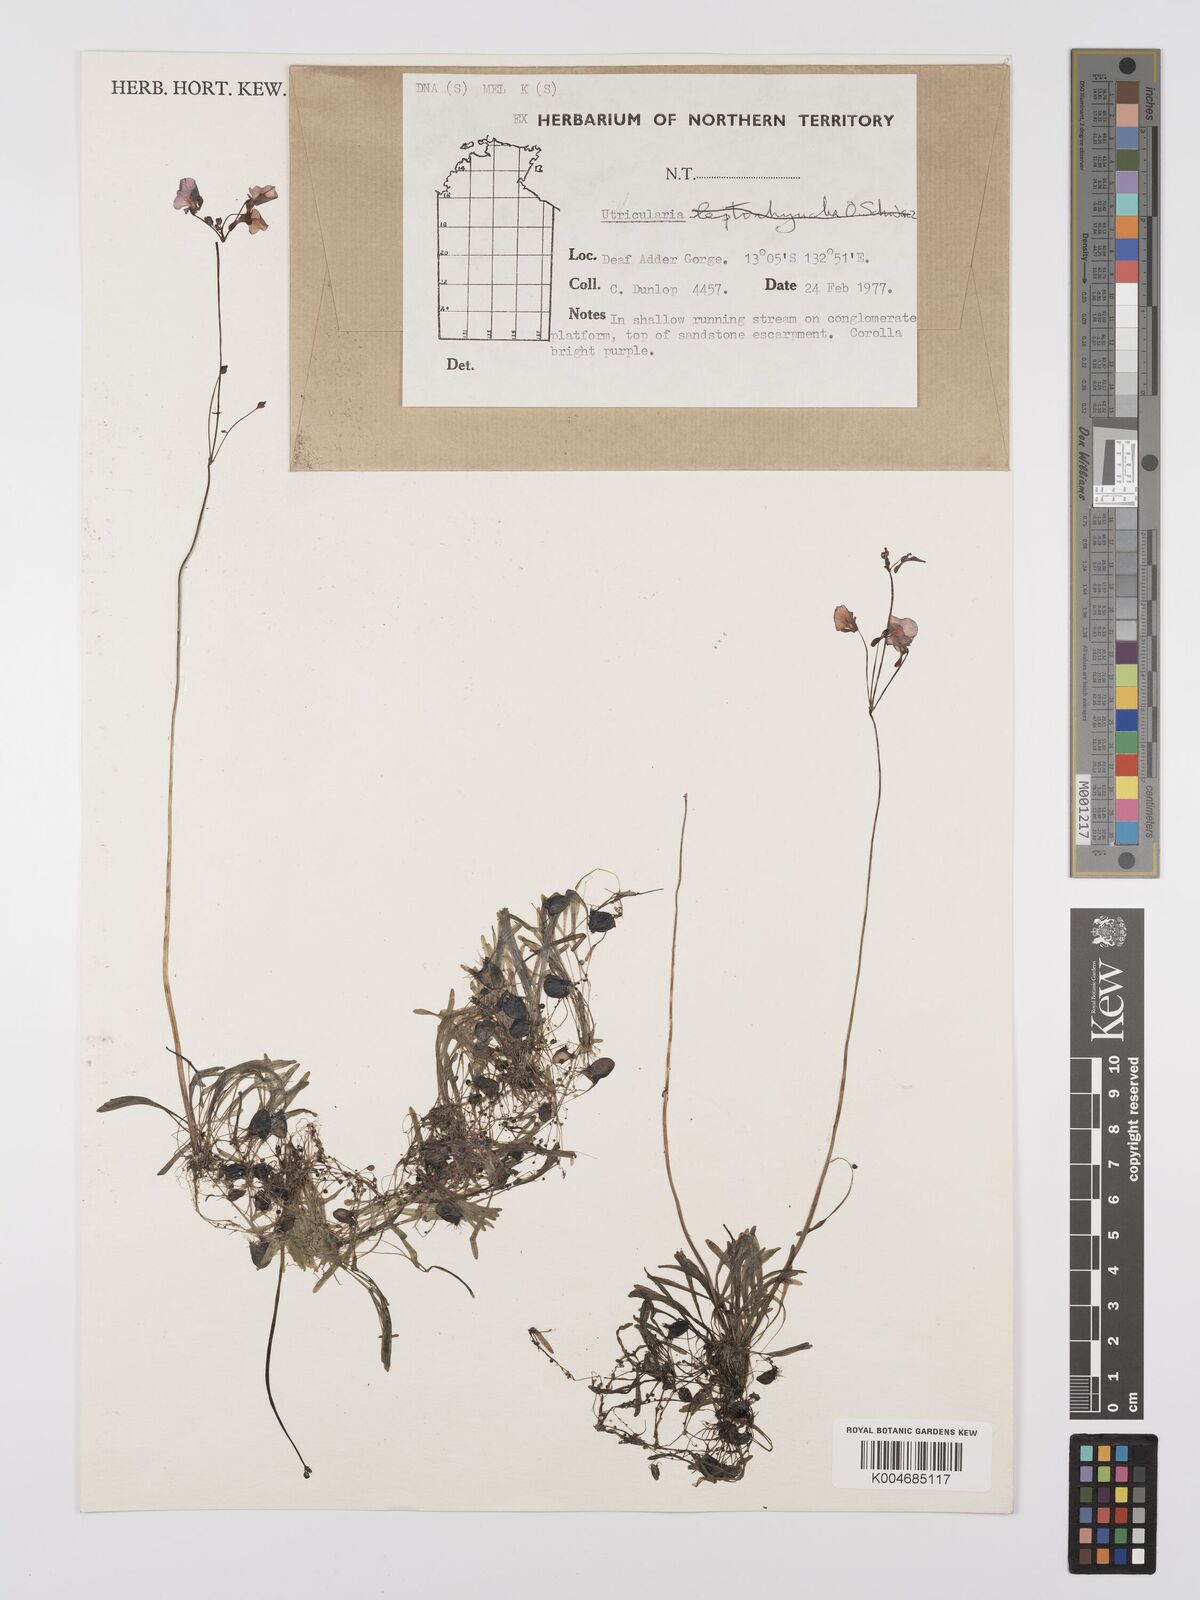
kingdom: Plantae
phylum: Tracheophyta
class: Magnoliopsida
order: Lamiales
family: Lentibulariaceae
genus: Utricularia
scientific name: Utricularia arnhemica
